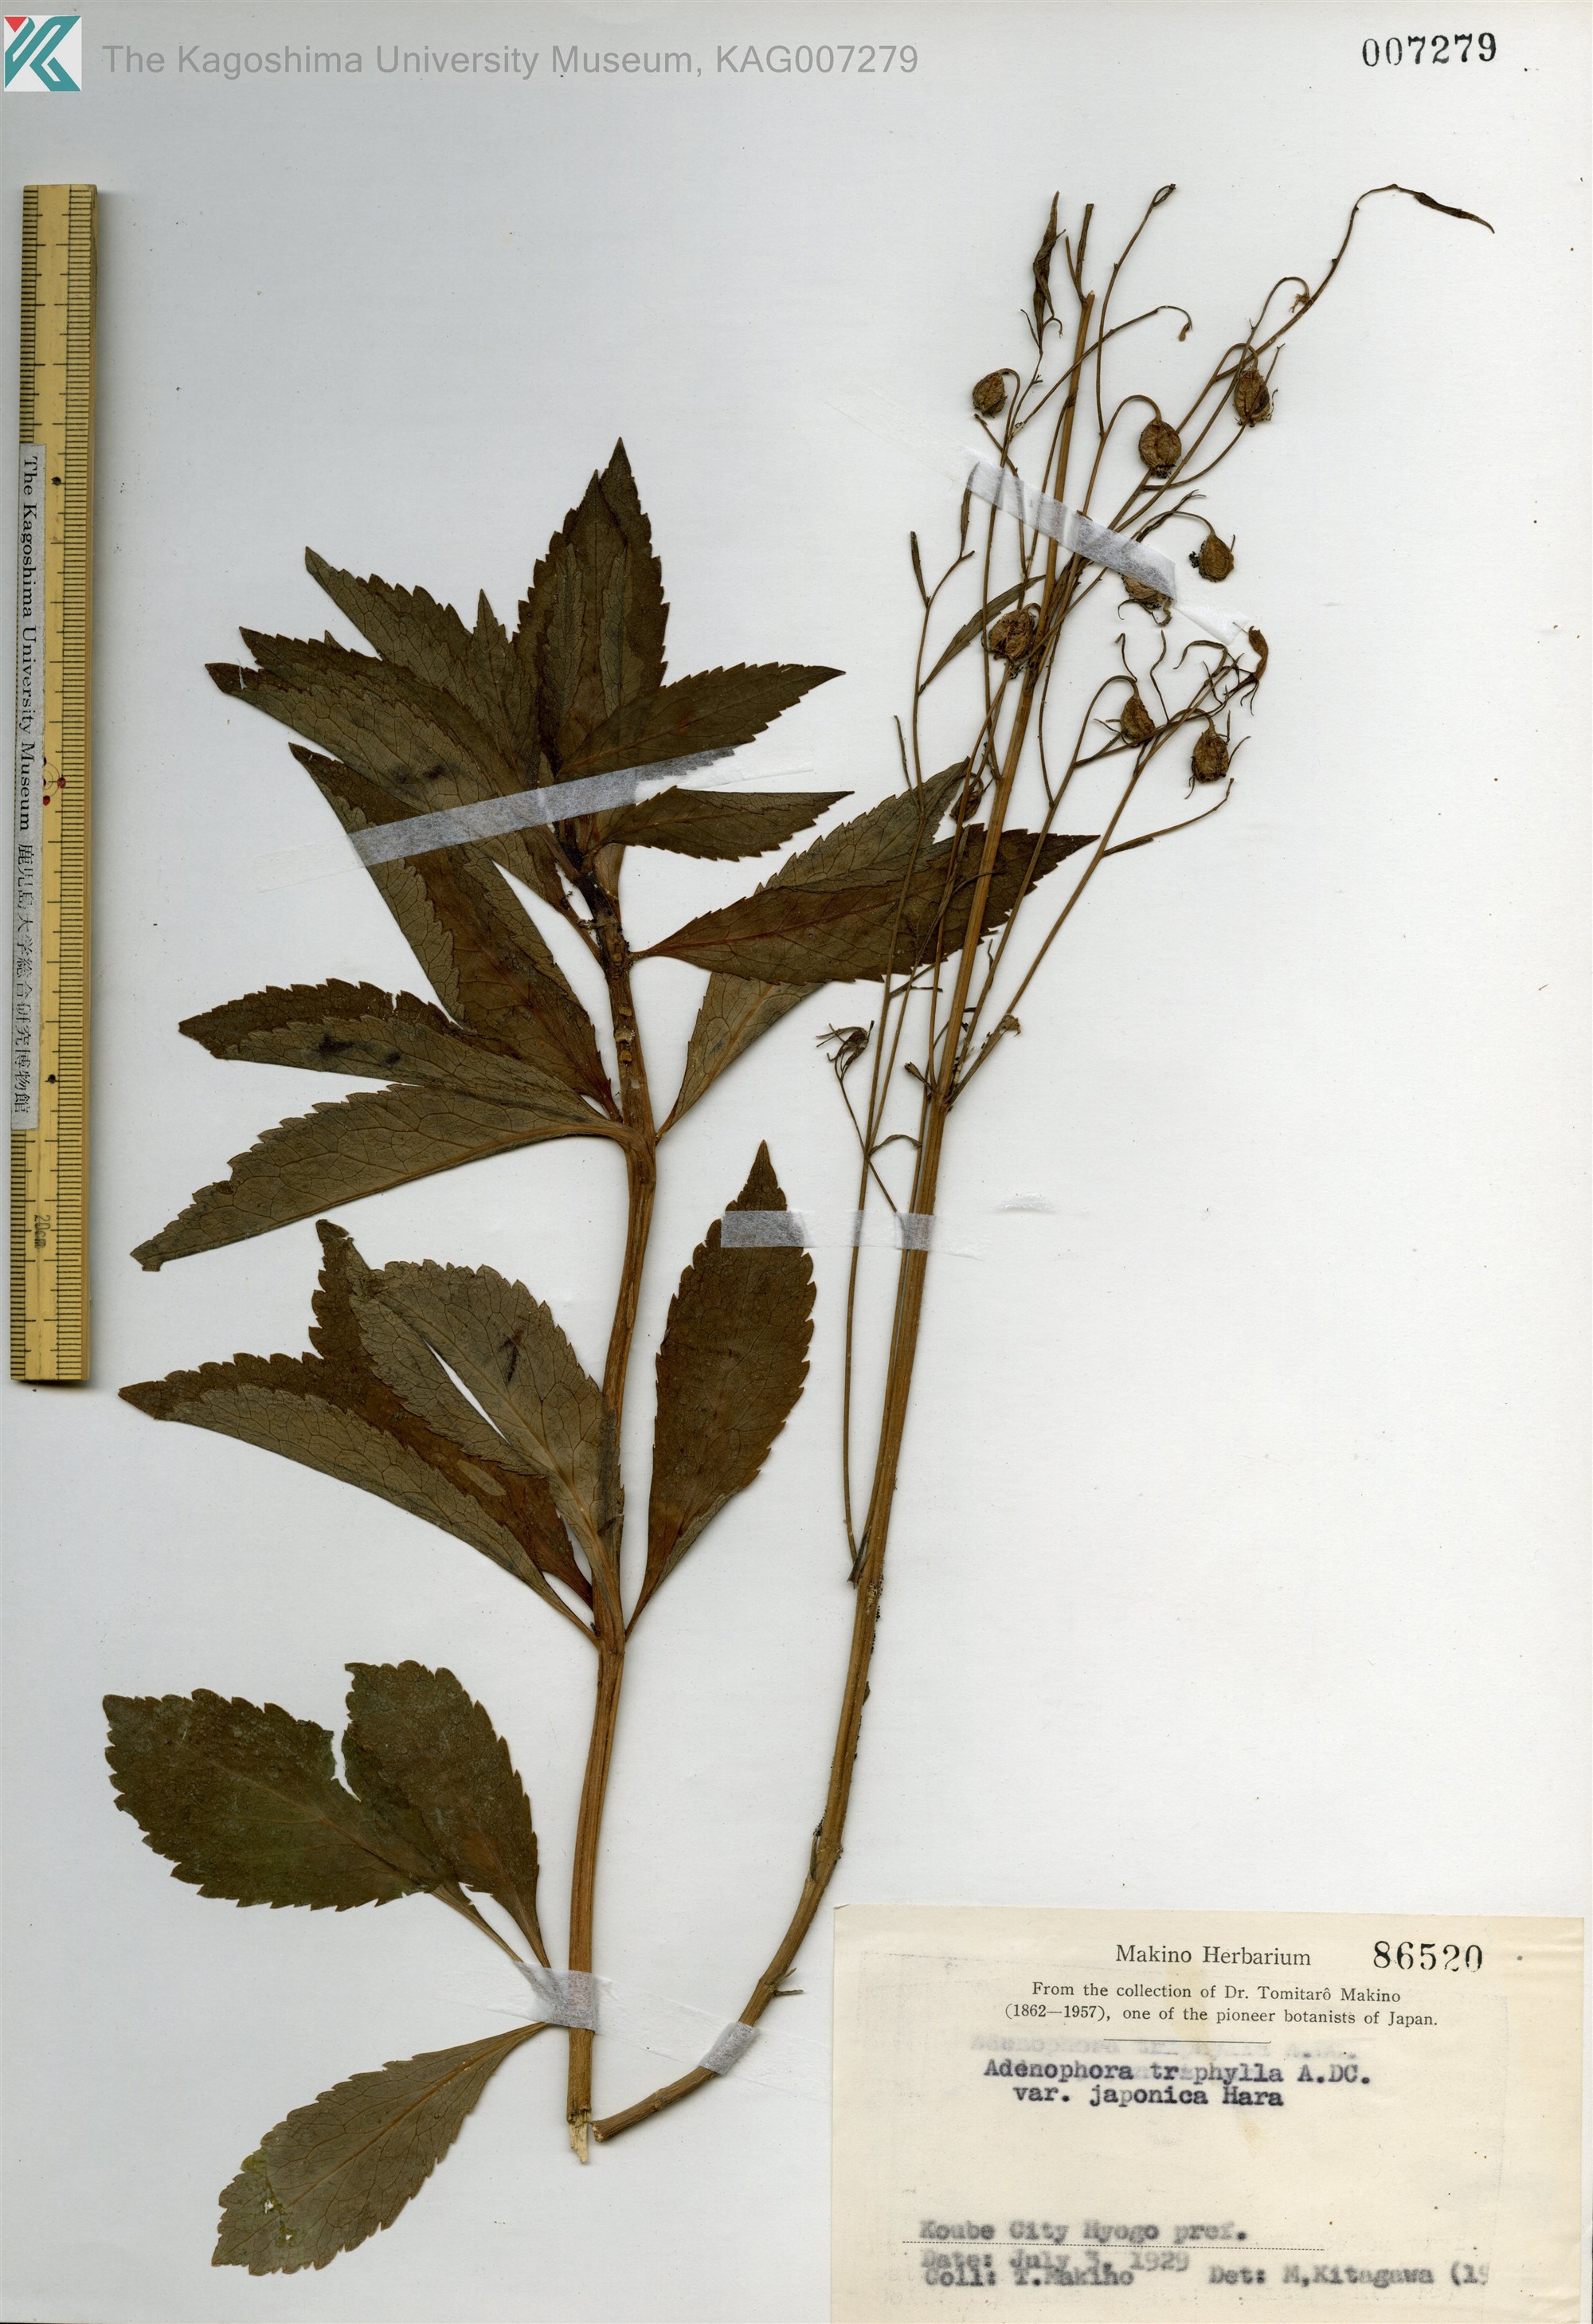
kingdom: Plantae
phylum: Tracheophyta
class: Magnoliopsida
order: Asterales
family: Campanulaceae
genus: Adenophora
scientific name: Adenophora triphylla
